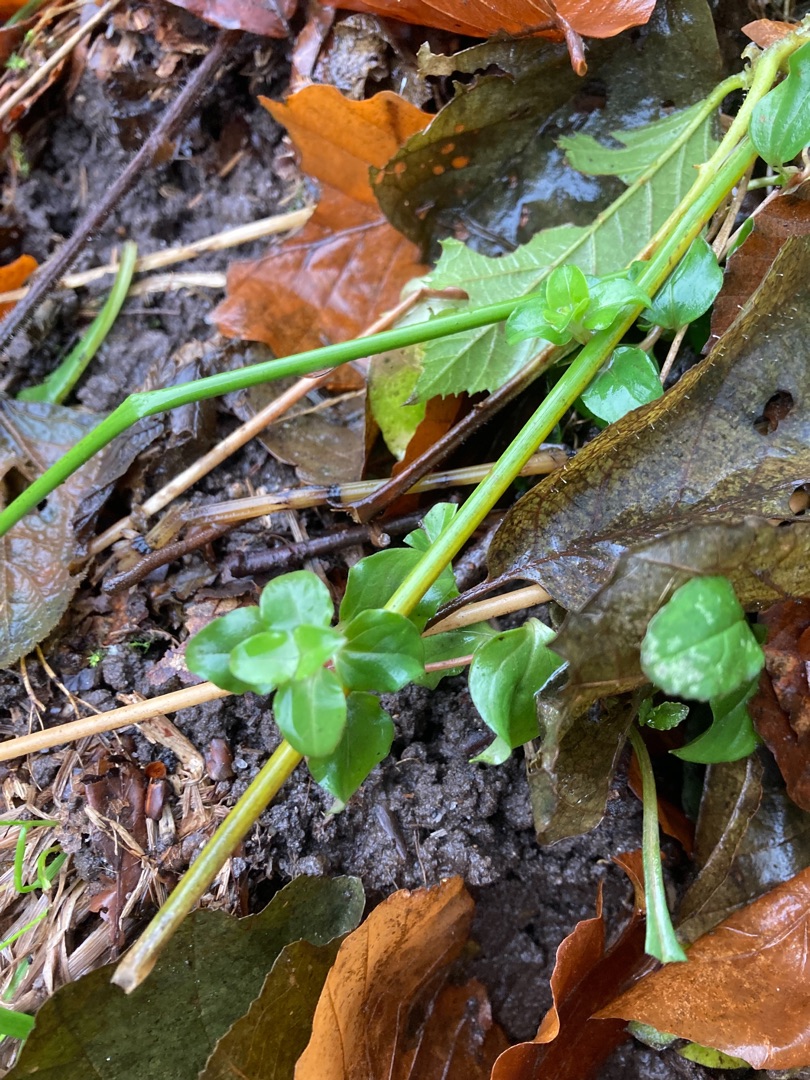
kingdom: Plantae
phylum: Tracheophyta
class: Magnoliopsida
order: Ericales
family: Primulaceae
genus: Lysimachia
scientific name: Lysimachia nemorum
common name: Lund-fredløs
